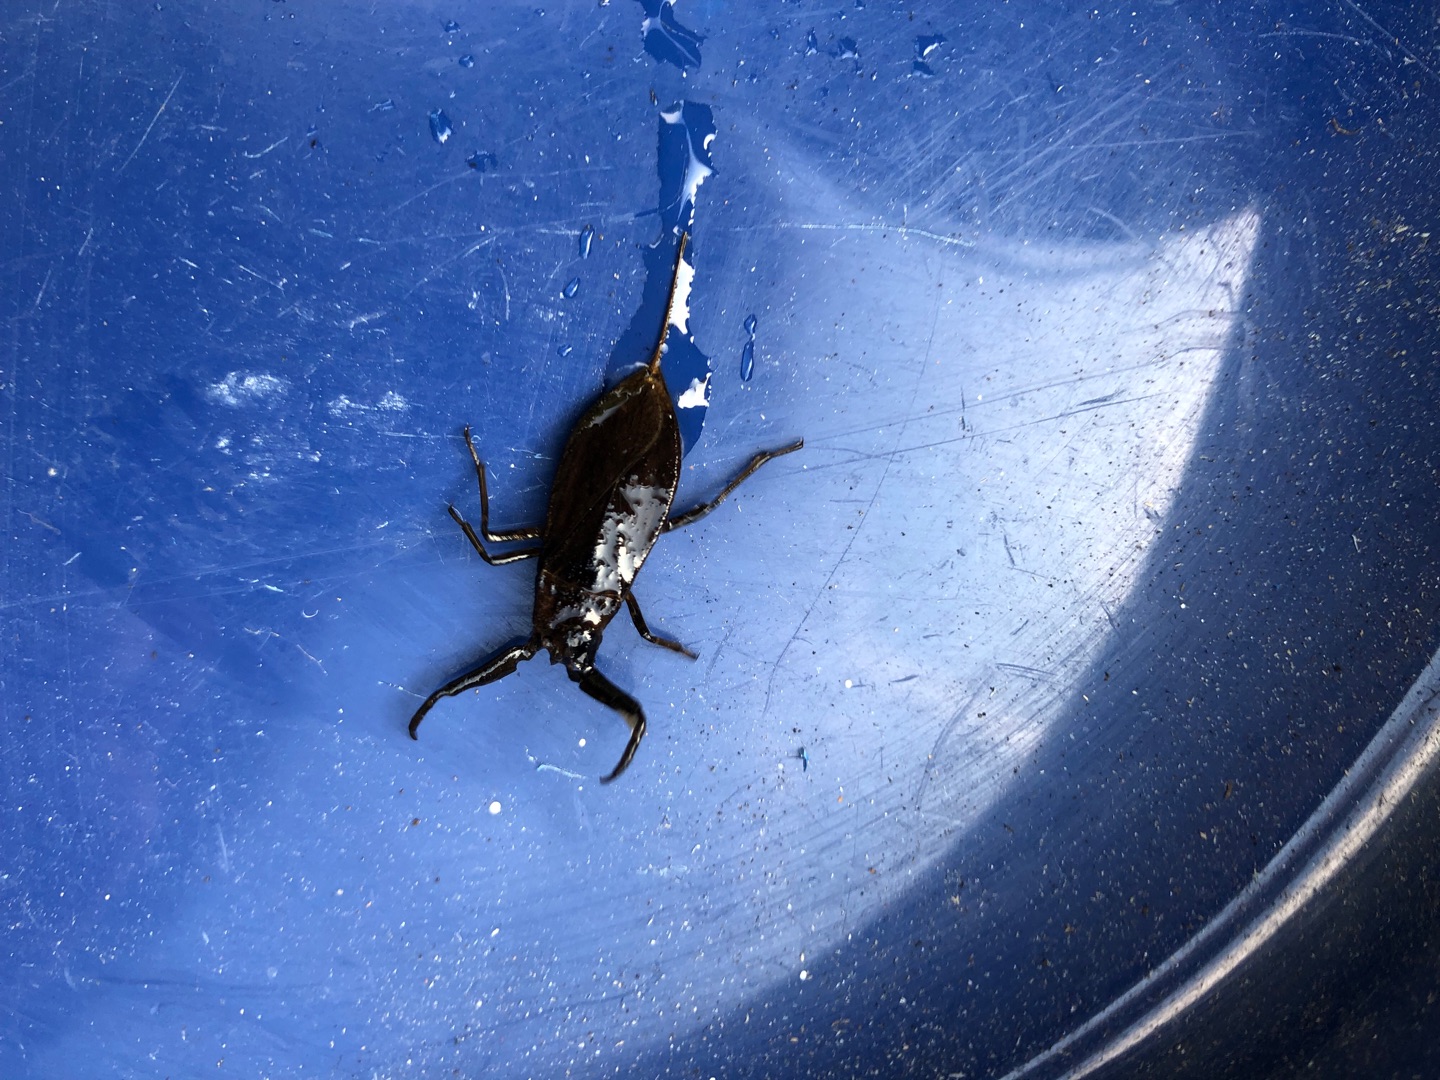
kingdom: Animalia
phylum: Arthropoda
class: Insecta
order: Hemiptera
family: Nepidae
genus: Nepa
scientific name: Nepa cinerea
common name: Skorpiontæge
